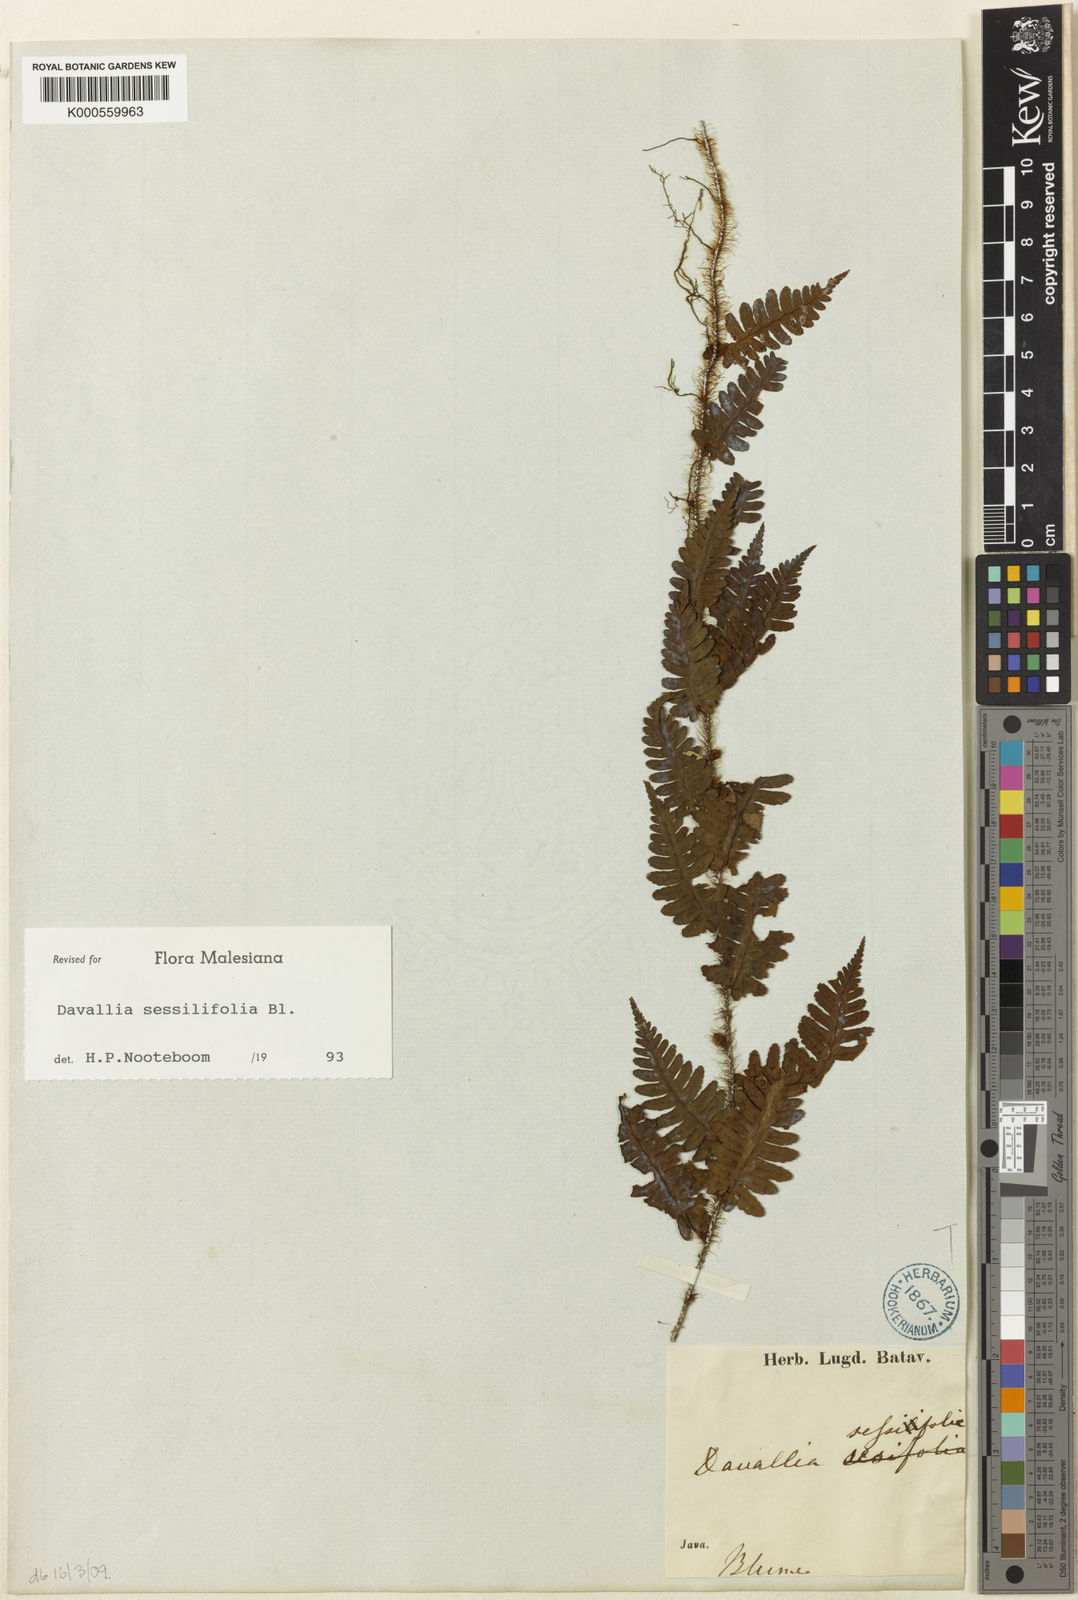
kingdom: Plantae
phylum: Tracheophyta
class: Polypodiopsida
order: Polypodiales
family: Davalliaceae
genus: Davallia
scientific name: Davallia sessilifolia
